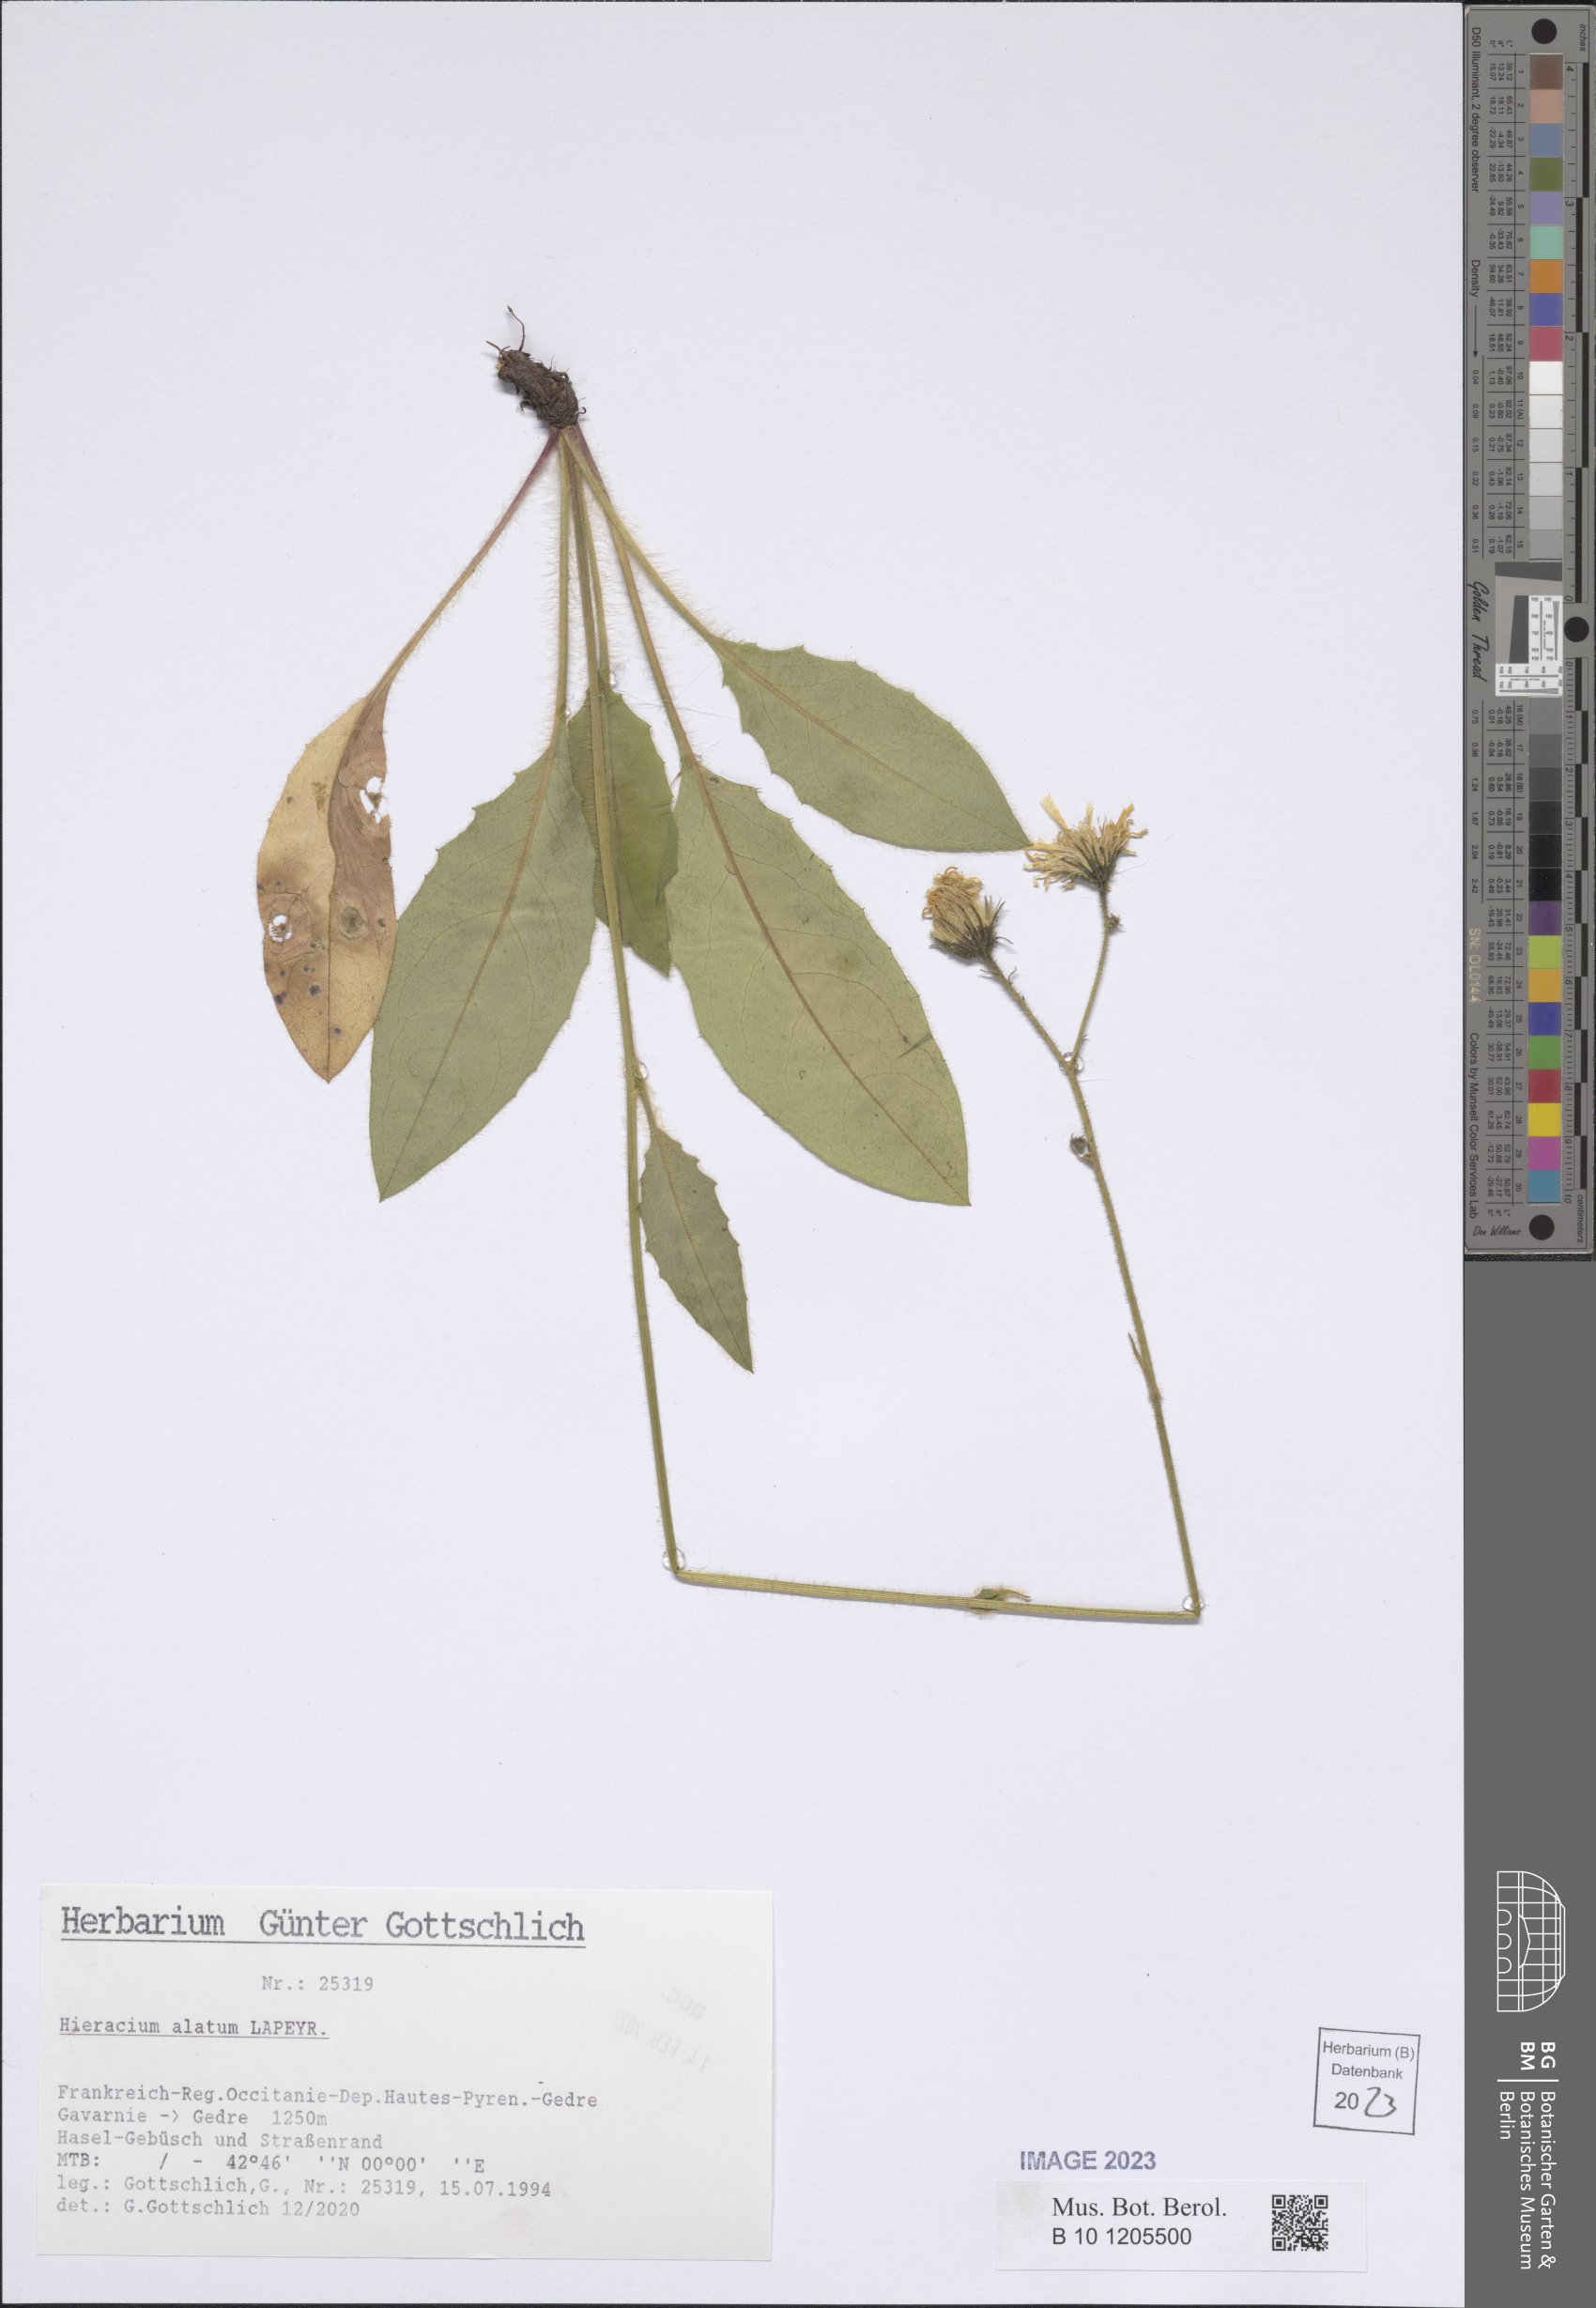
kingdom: Plantae
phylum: Tracheophyta
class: Magnoliopsida
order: Asterales
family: Asteraceae
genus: Hieracium
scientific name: Hieracium alatum
